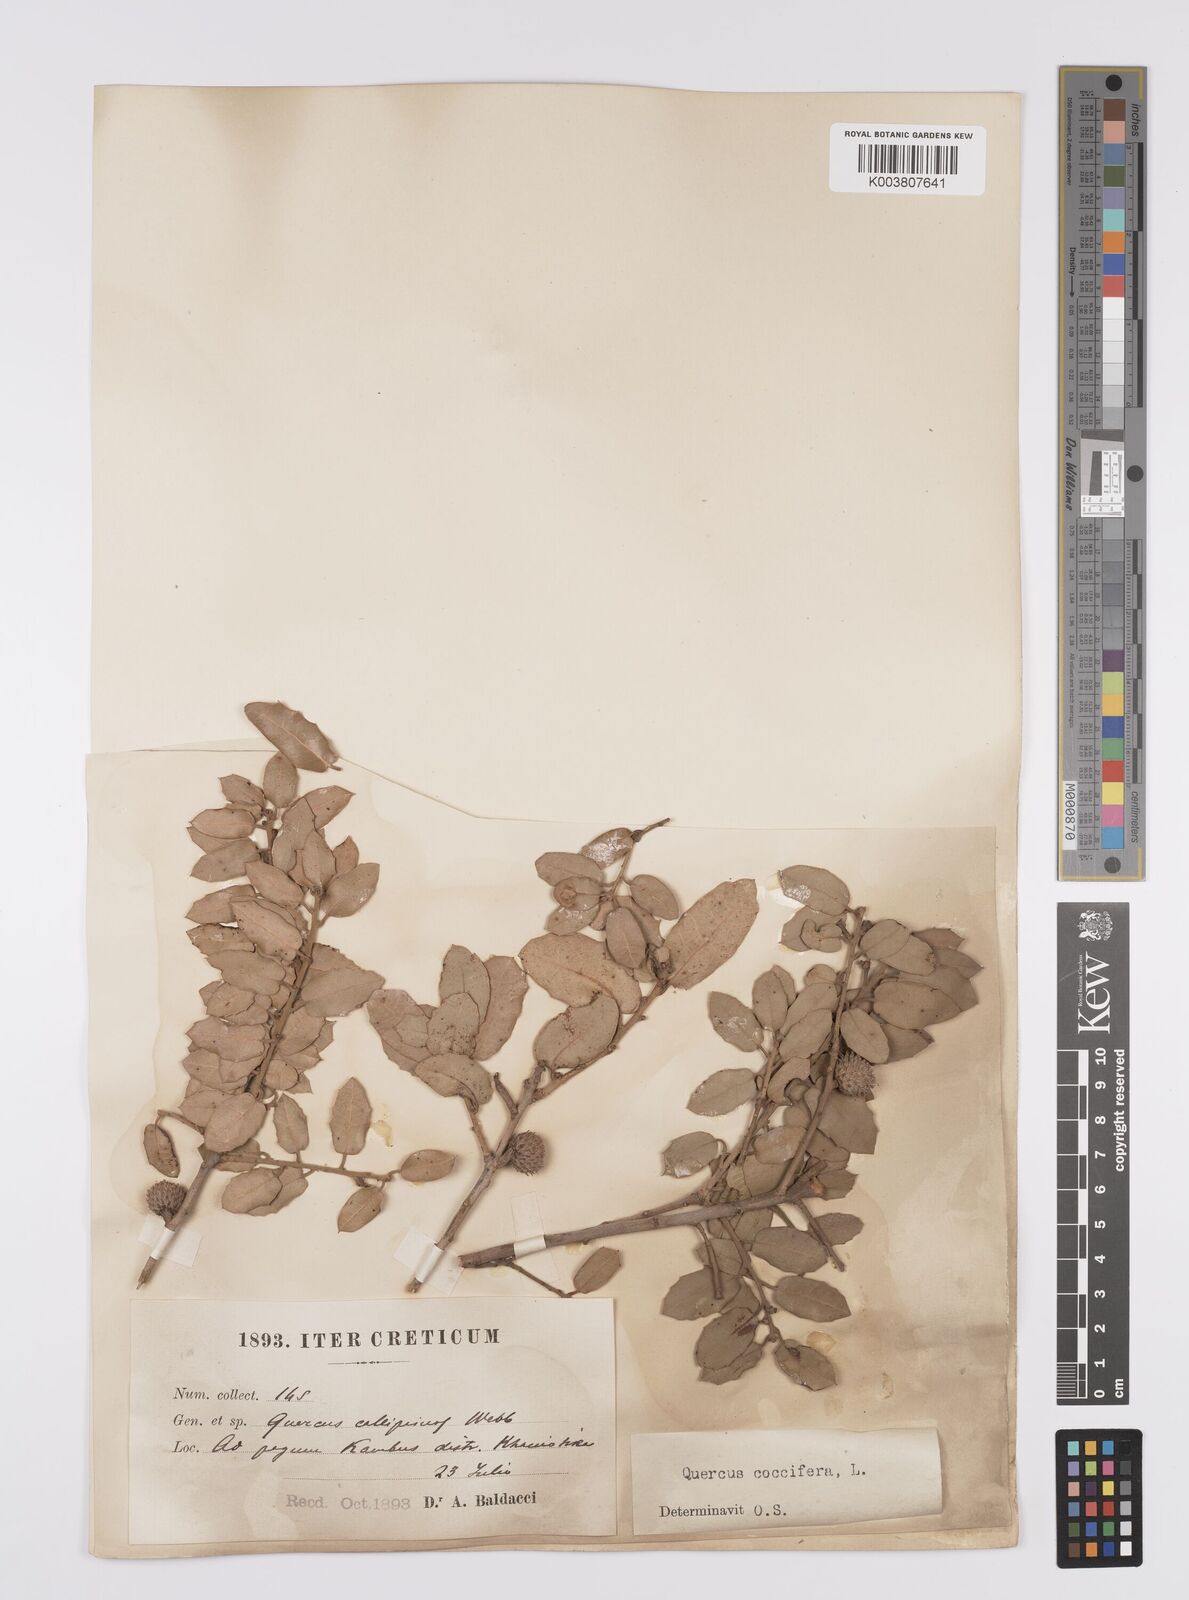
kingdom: Plantae
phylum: Tracheophyta
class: Magnoliopsida
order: Fagales
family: Fagaceae
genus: Quercus
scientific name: Quercus coccifera
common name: Kermes oak
